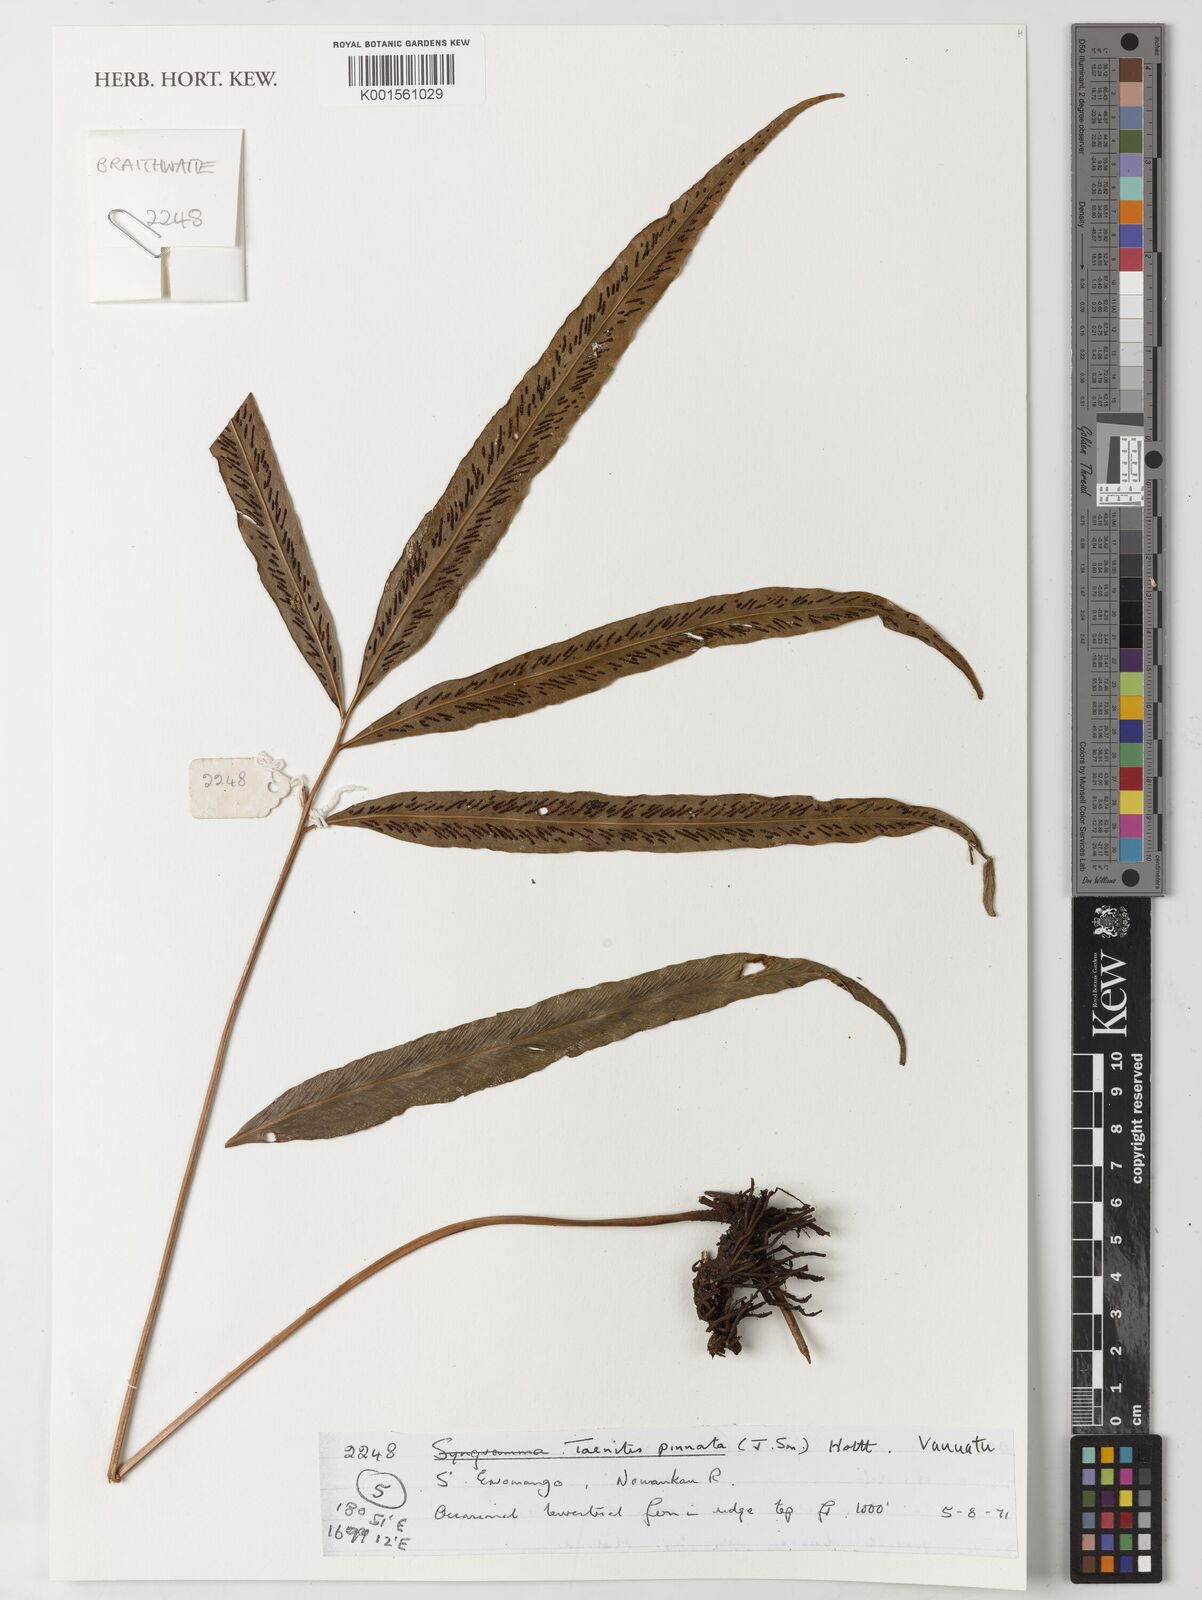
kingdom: Plantae
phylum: Tracheophyta
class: Polypodiopsida
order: Polypodiales
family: Pteridaceae
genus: Taenitis
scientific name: Taenitis pinnata
